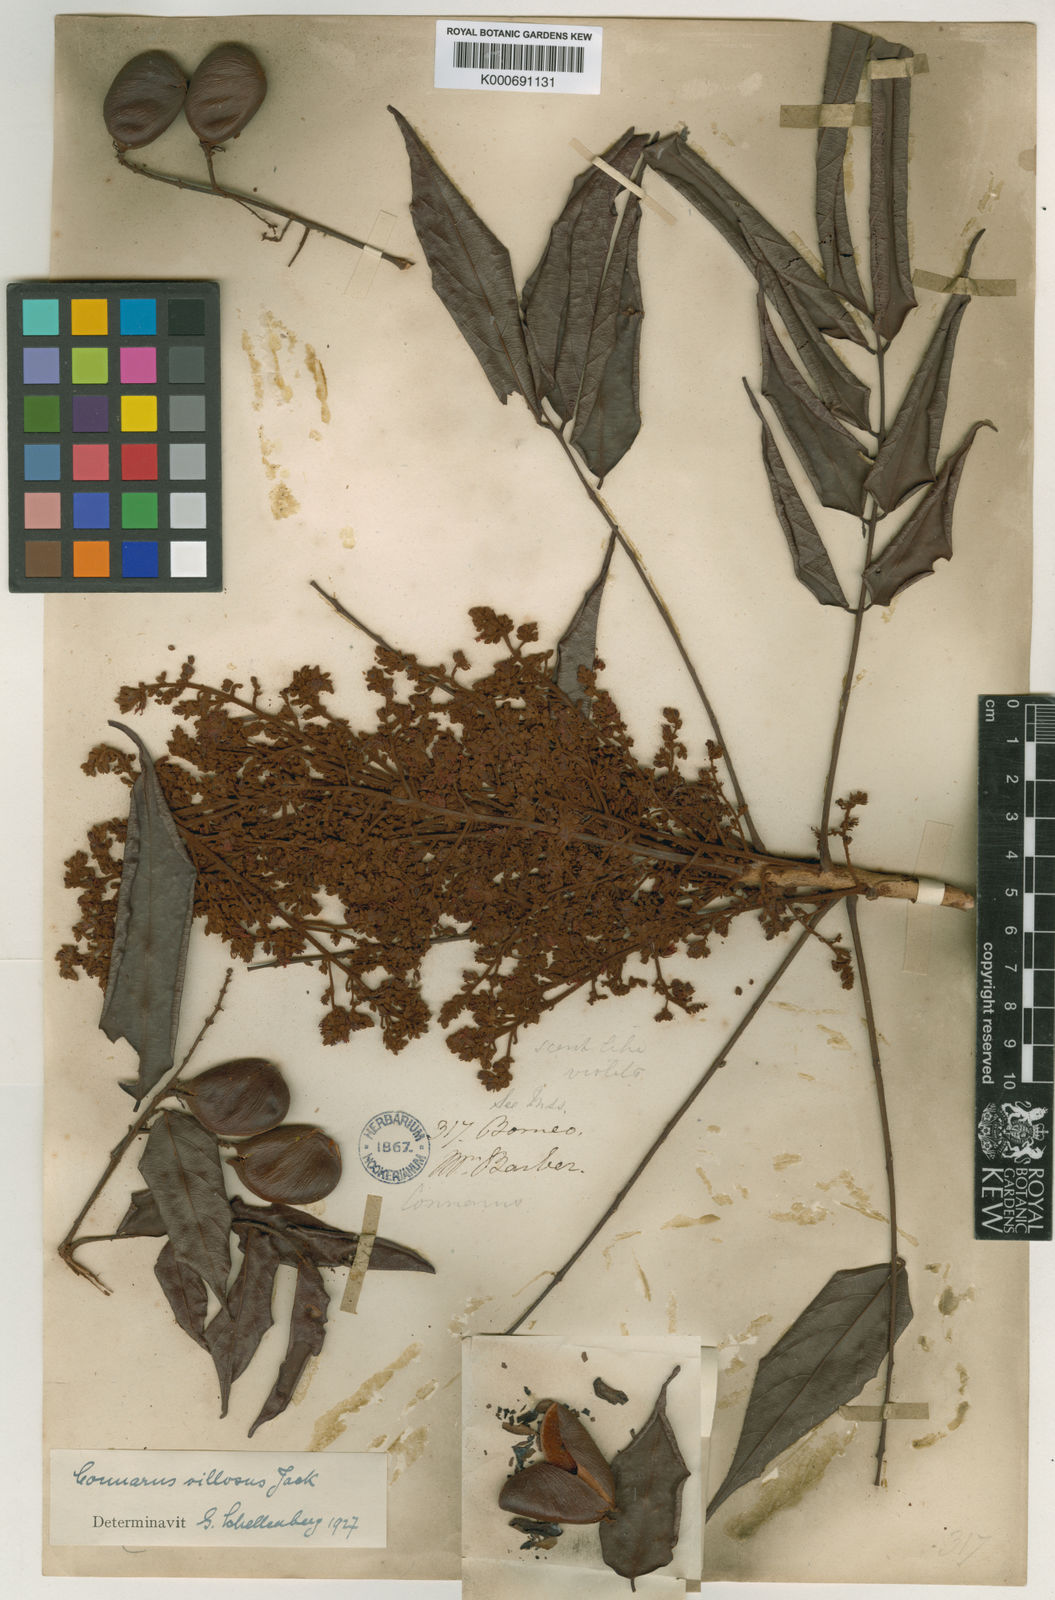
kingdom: Plantae
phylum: Tracheophyta
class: Magnoliopsida
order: Oxalidales
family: Connaraceae
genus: Connarus
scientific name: Connarus villosus
